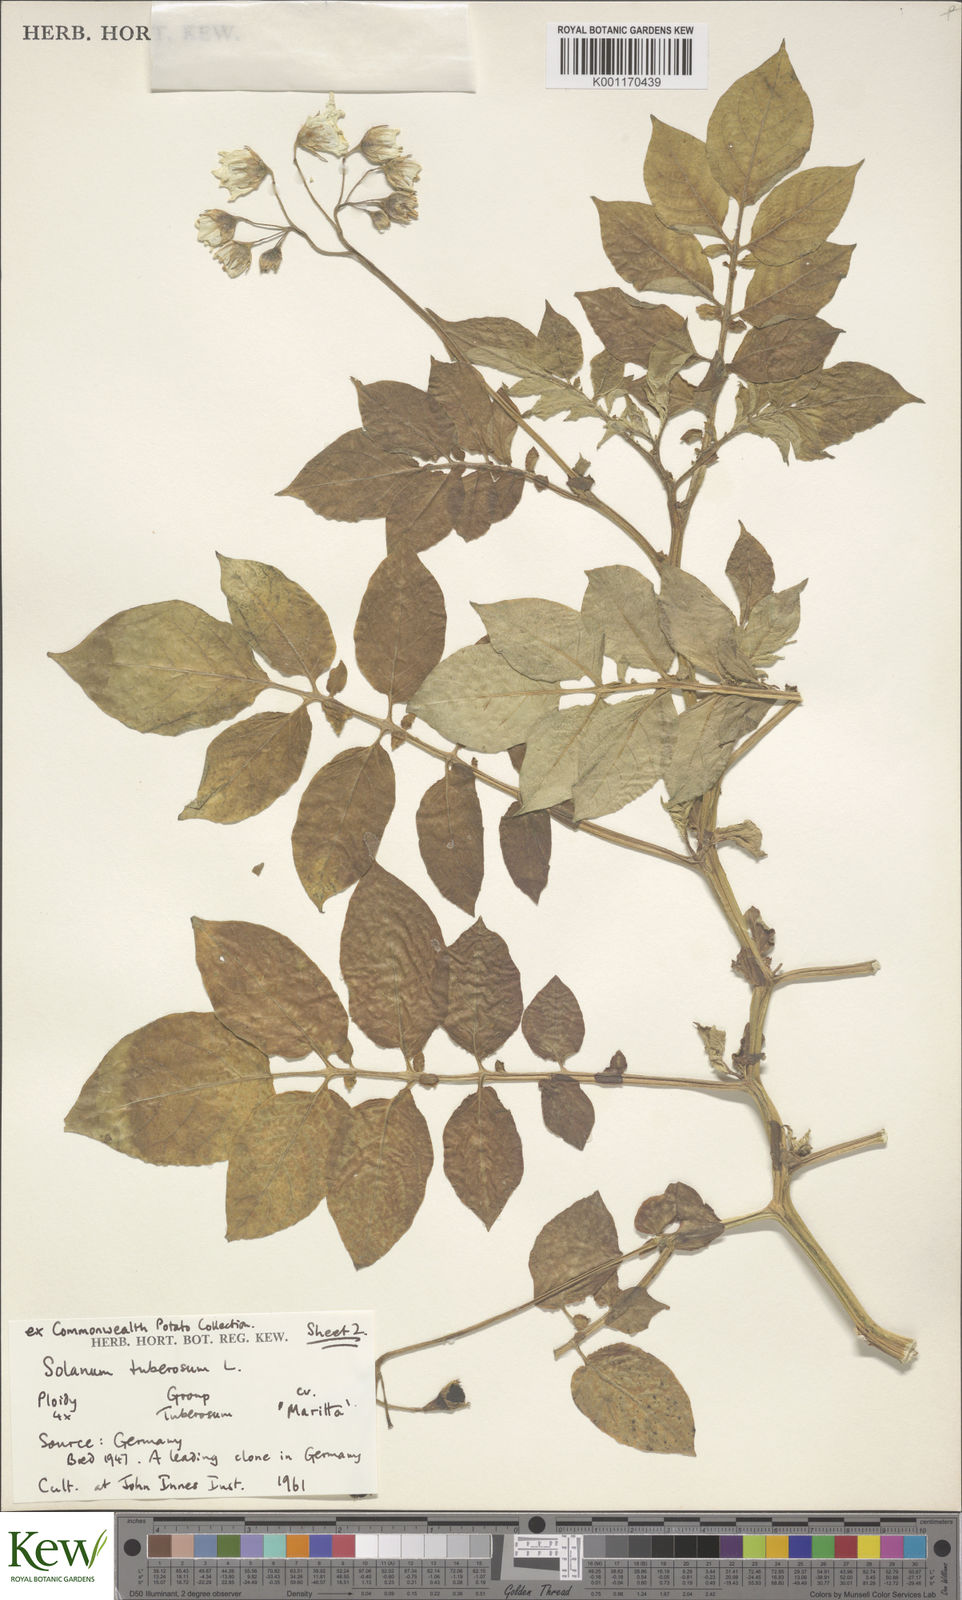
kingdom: Plantae
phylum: Tracheophyta
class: Magnoliopsida
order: Solanales
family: Solanaceae
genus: Solanum
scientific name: Solanum tuberosum
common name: Potato
